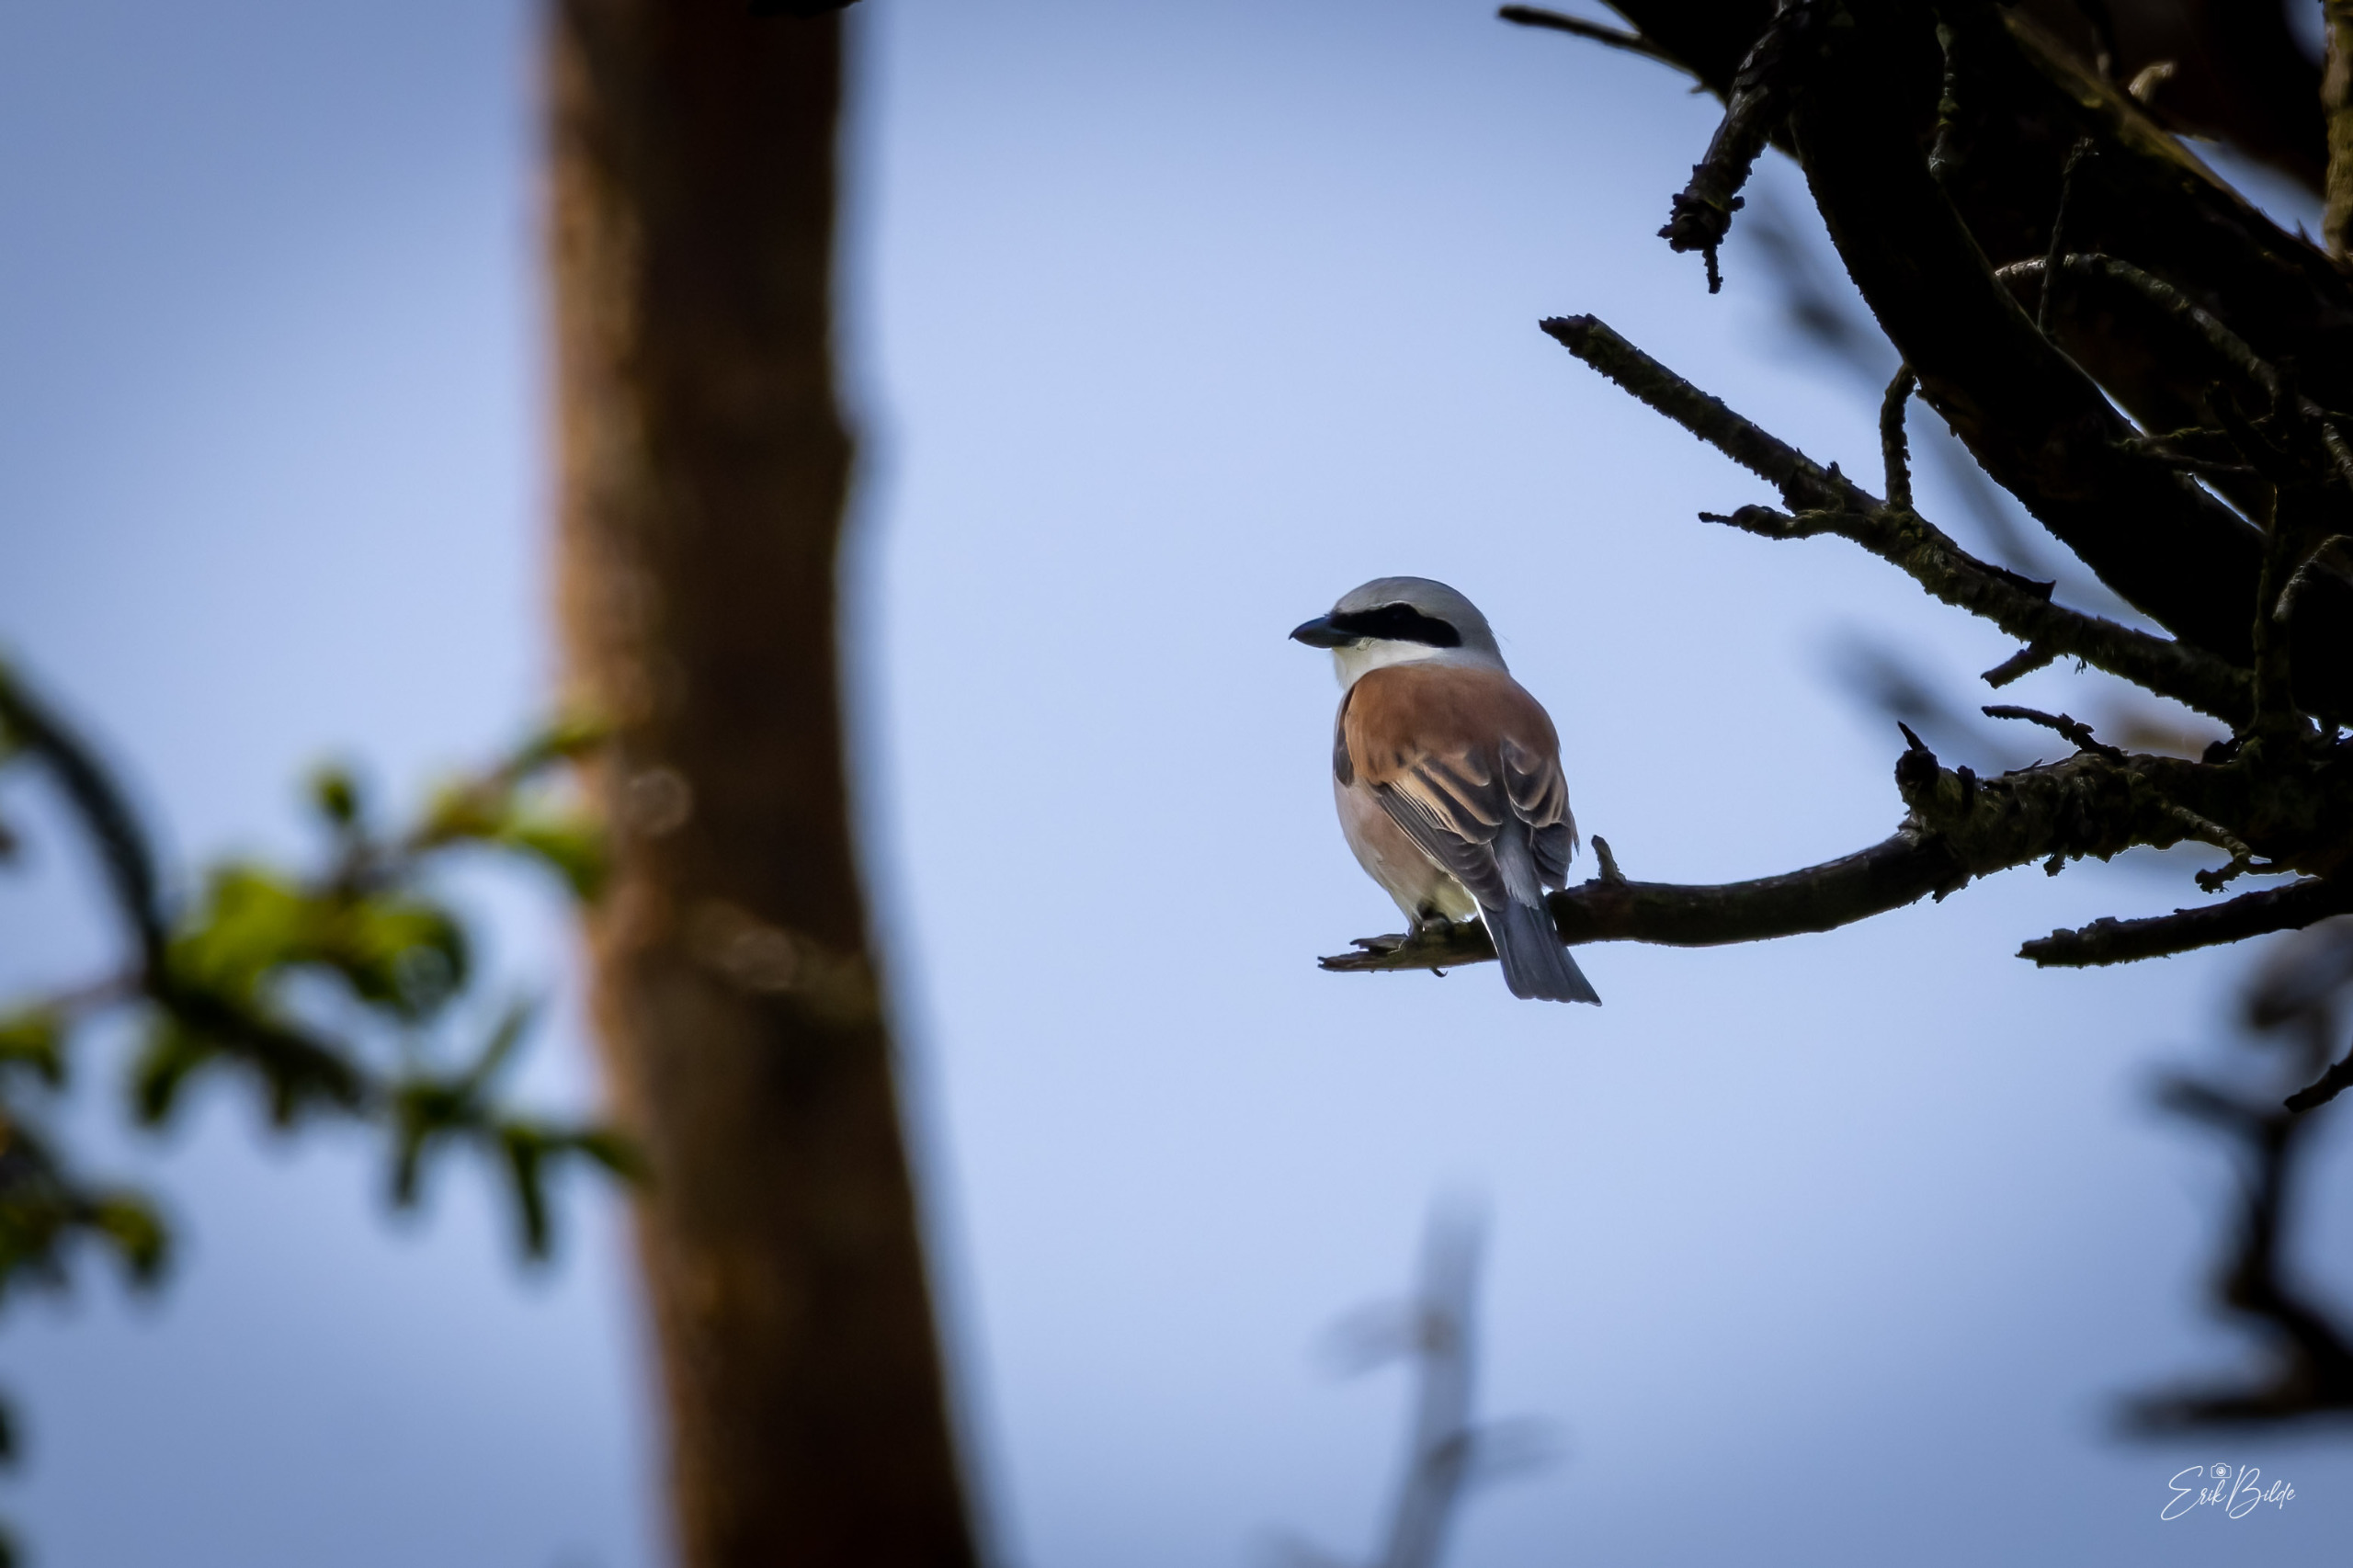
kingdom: Animalia
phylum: Chordata
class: Aves
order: Passeriformes
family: Laniidae
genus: Lanius
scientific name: Lanius collurio
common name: Rødrygget tornskade
